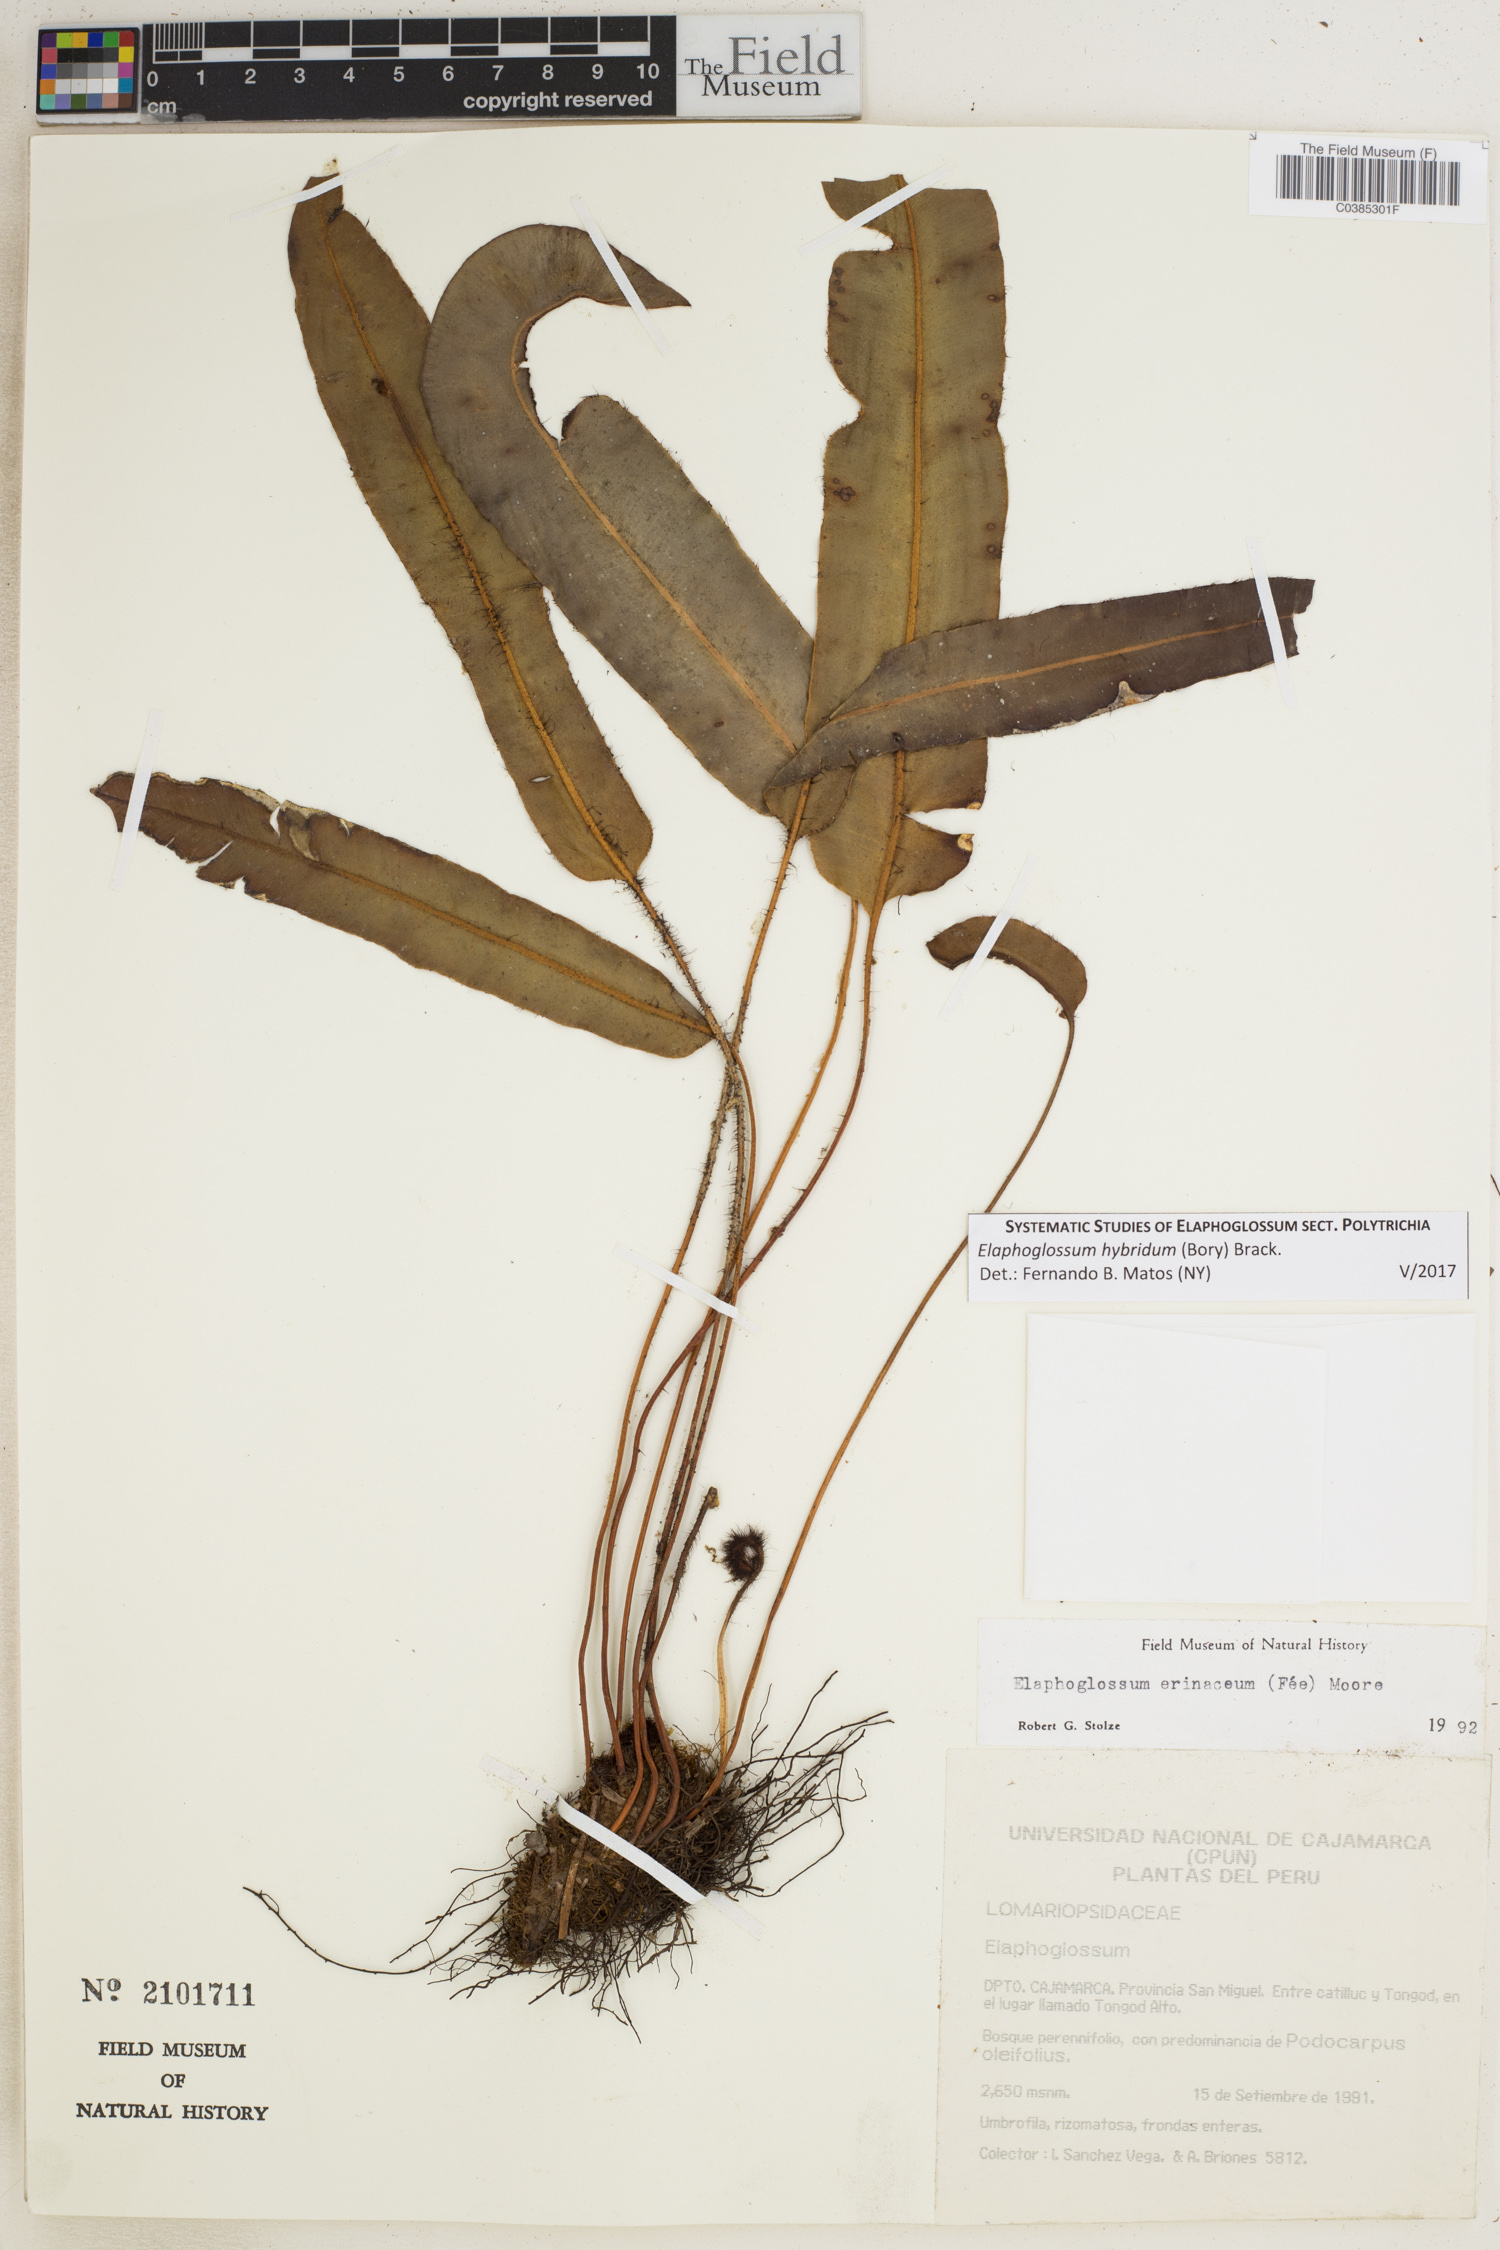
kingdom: Plantae
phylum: Tracheophyta
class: Polypodiopsida
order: Polypodiales
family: Dryopteridaceae
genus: Elaphoglossum
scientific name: Elaphoglossum hybridum
